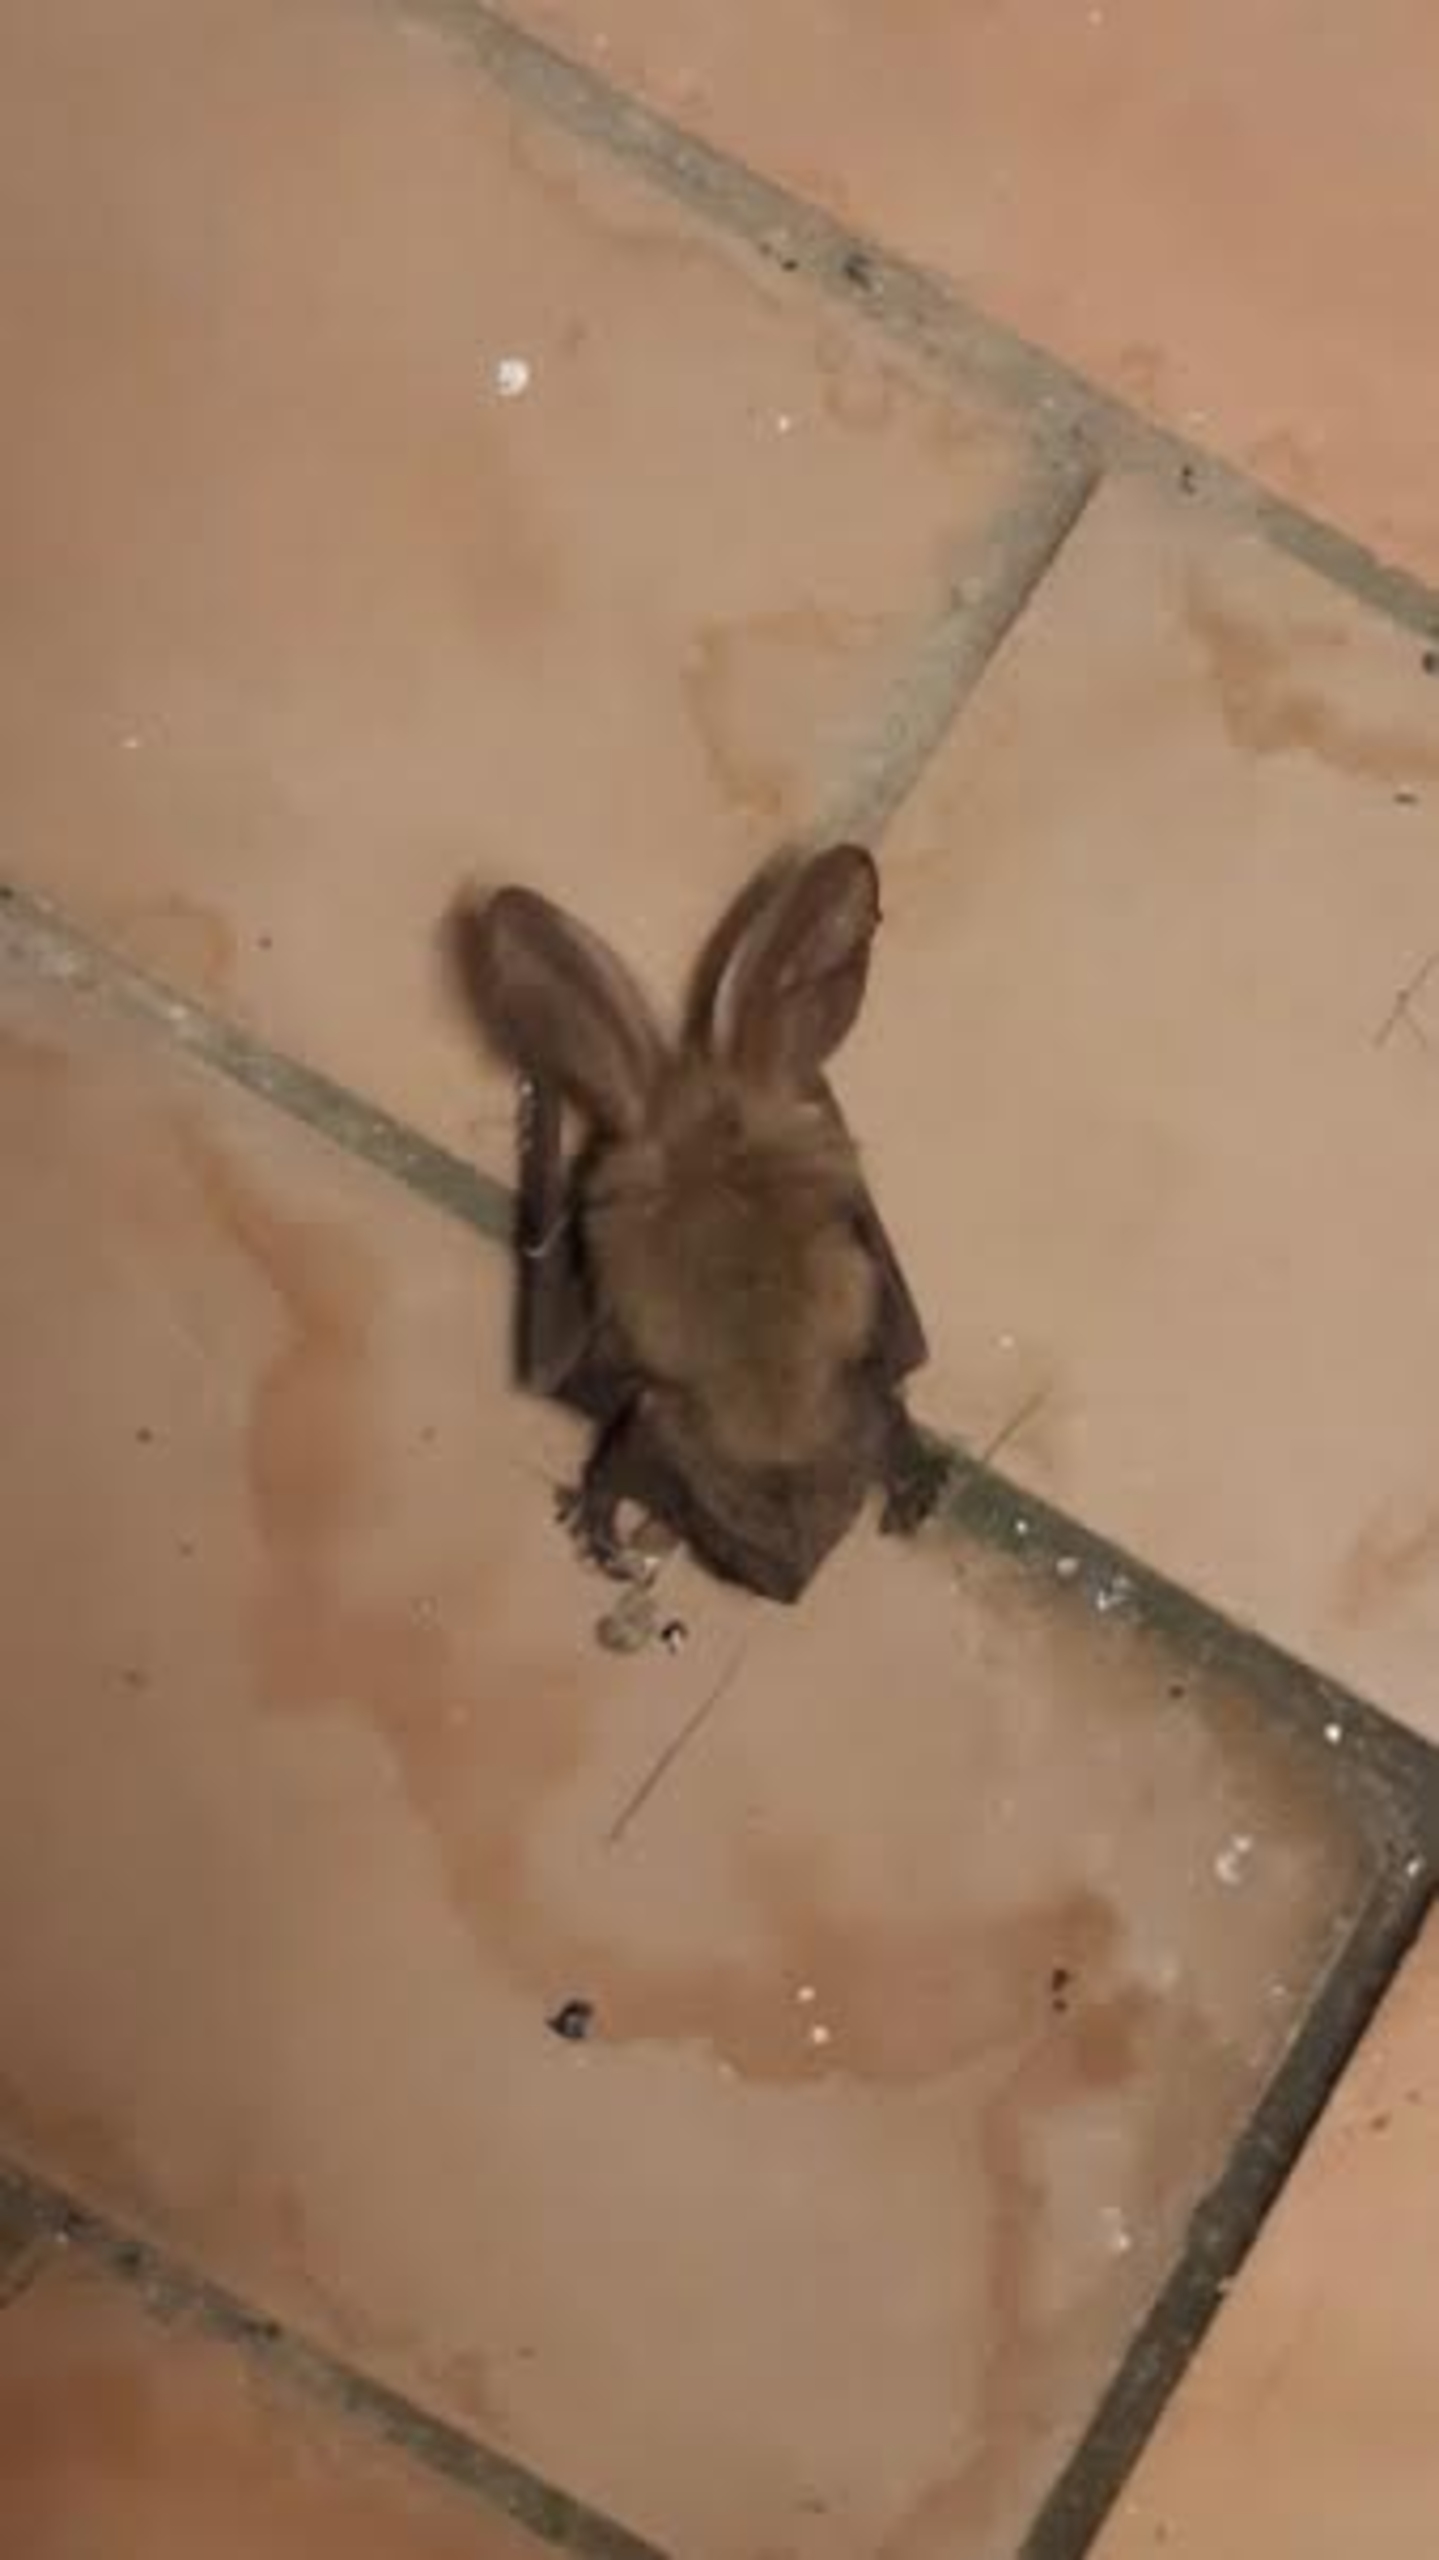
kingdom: Animalia
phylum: Chordata
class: Mammalia
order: Chiroptera
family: Vespertilionidae
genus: Plecotus
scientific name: Plecotus auritus
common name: Brun langøre
